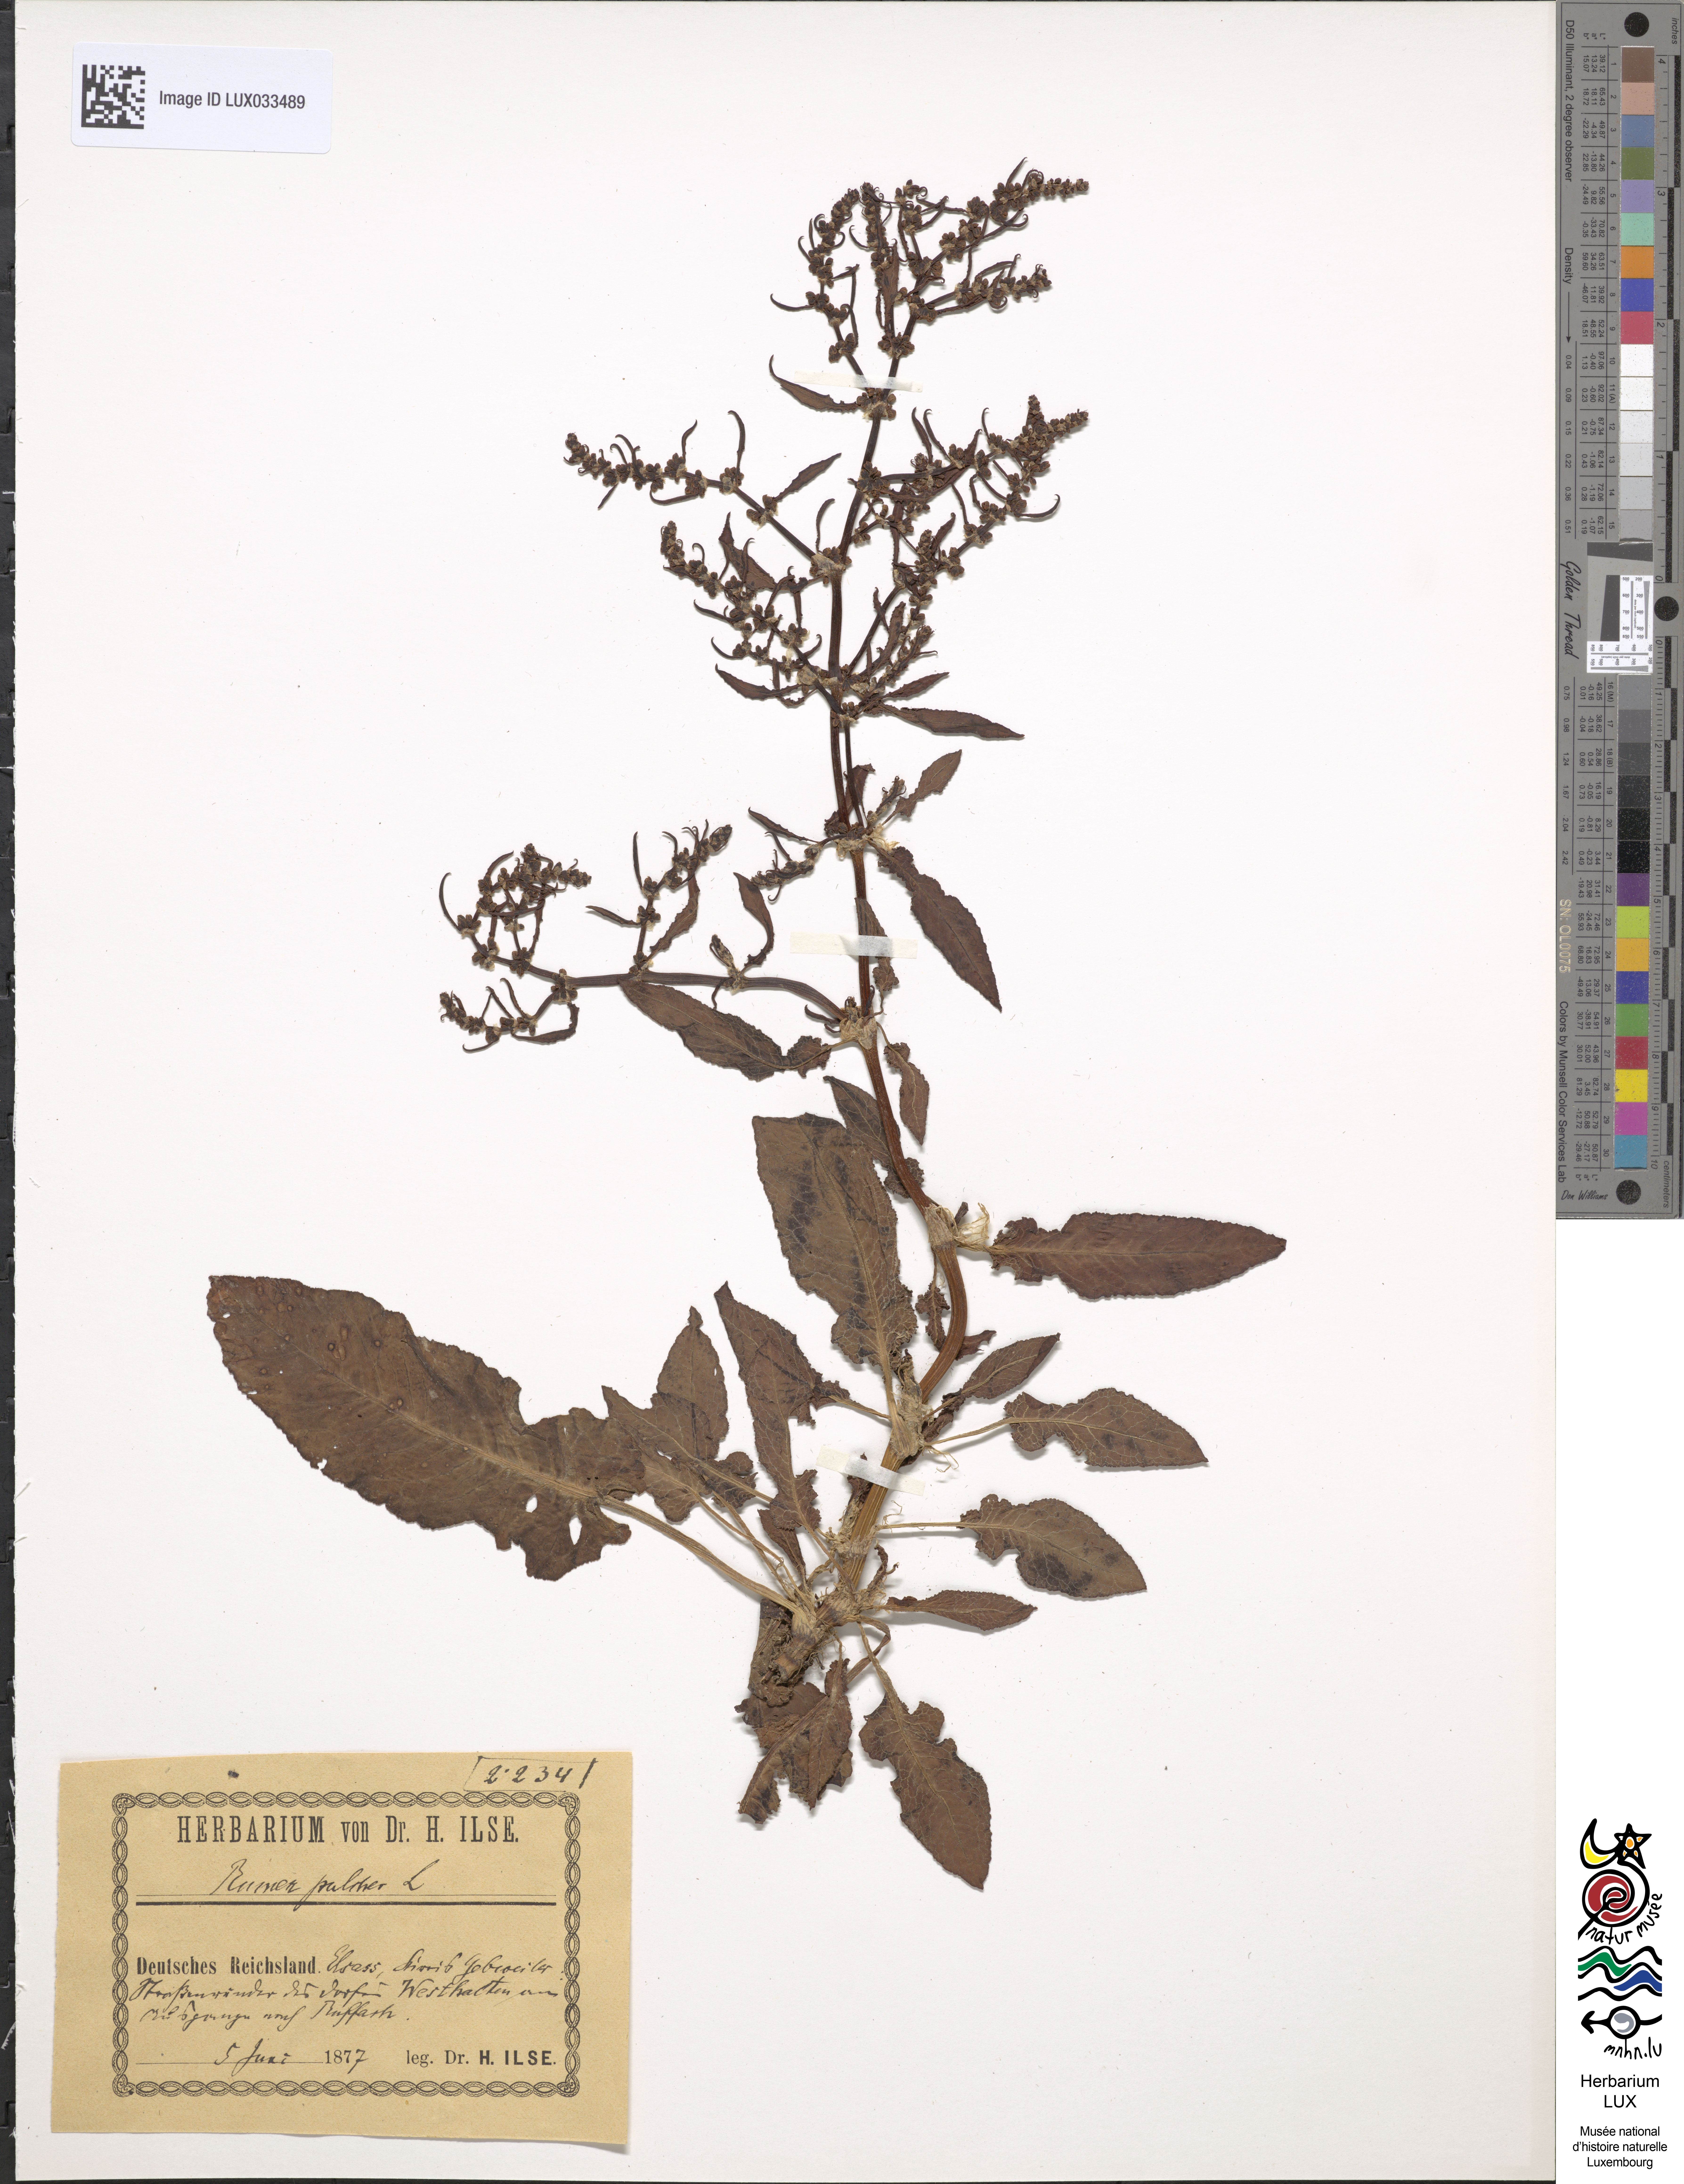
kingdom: Plantae
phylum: Tracheophyta
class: Magnoliopsida
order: Caryophyllales
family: Polygonaceae
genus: Rumex
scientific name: Rumex pulcher
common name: Fiddle dock
